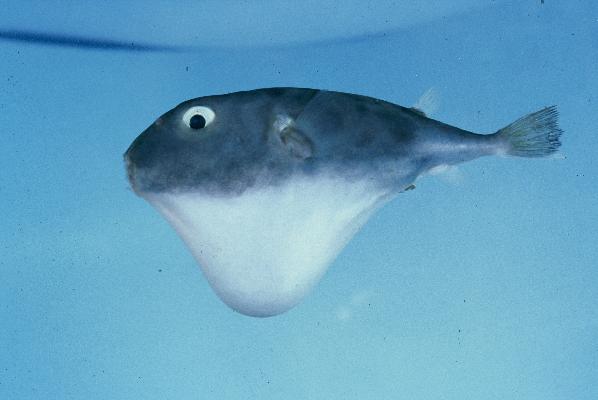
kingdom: Animalia
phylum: Chordata
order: Tetraodontiformes
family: Tetraodontidae
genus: Sphoeroides
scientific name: Sphoeroides pachygaster
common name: Blunthead puffer
